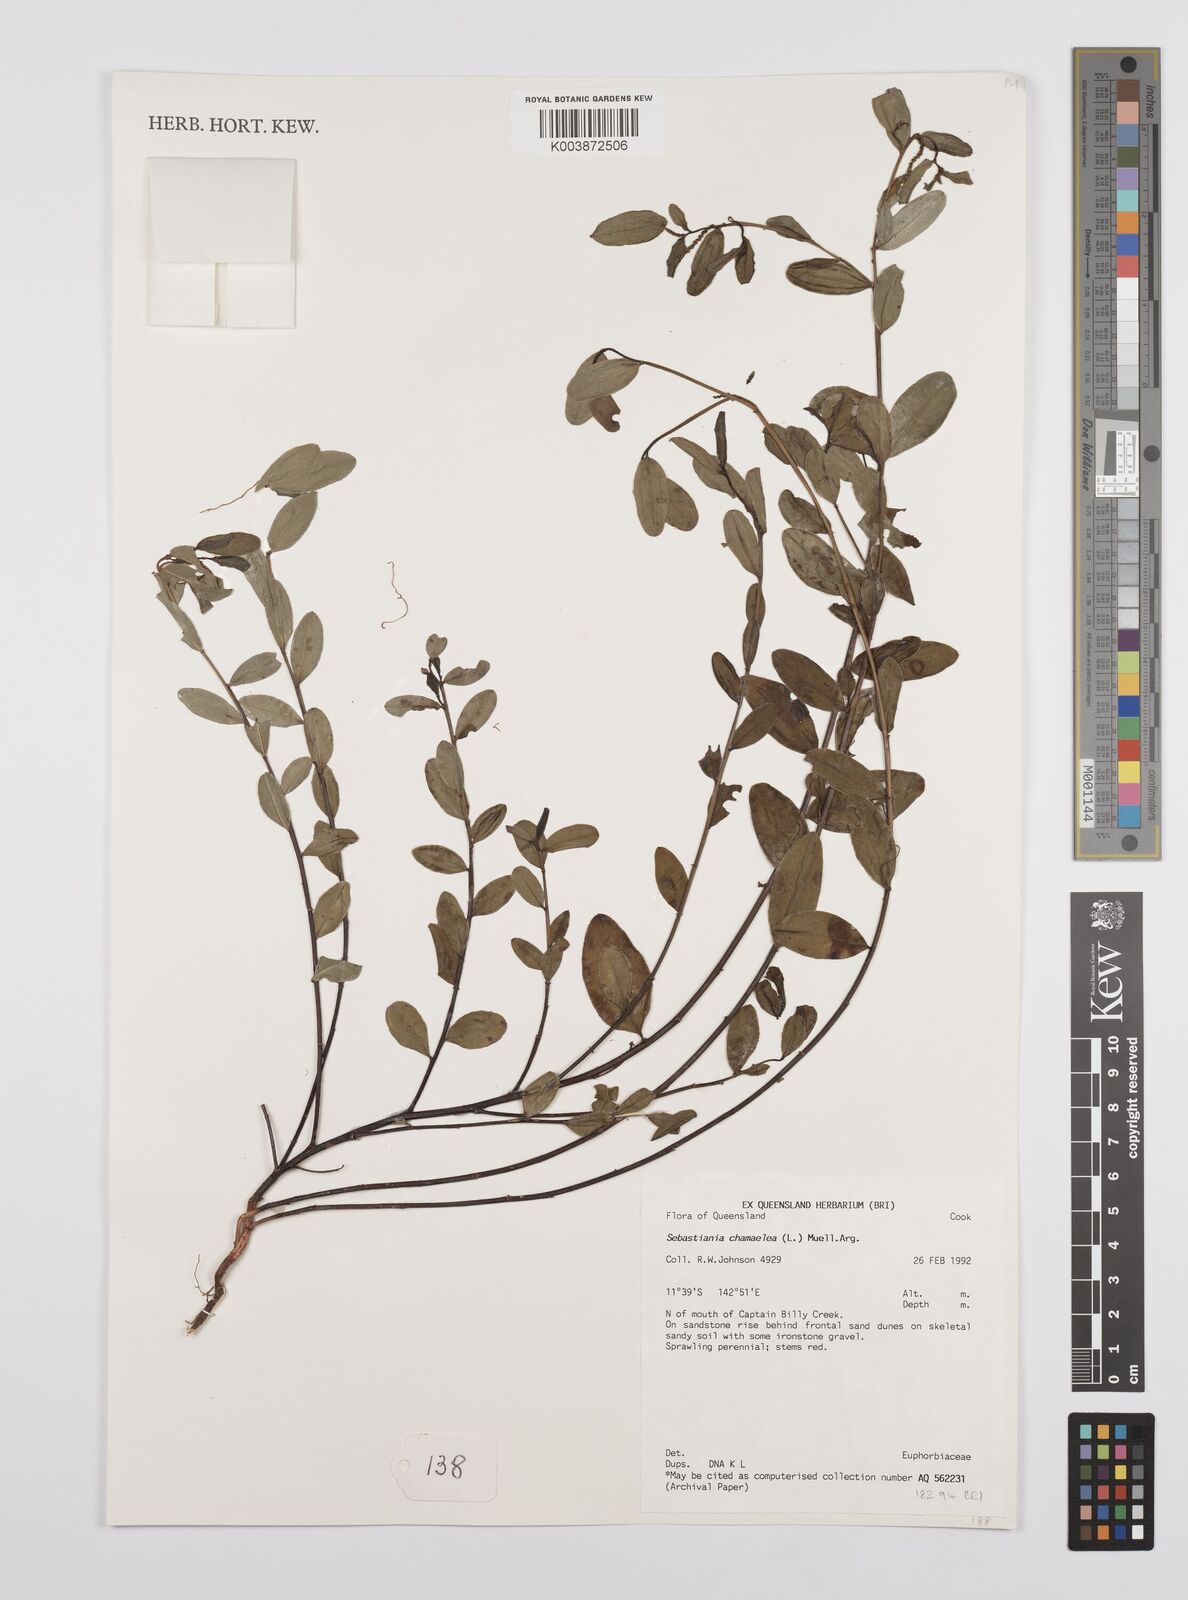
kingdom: Plantae
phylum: Tracheophyta
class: Magnoliopsida
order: Malpighiales
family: Euphorbiaceae
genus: Microstachys
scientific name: Microstachys chamaelea
